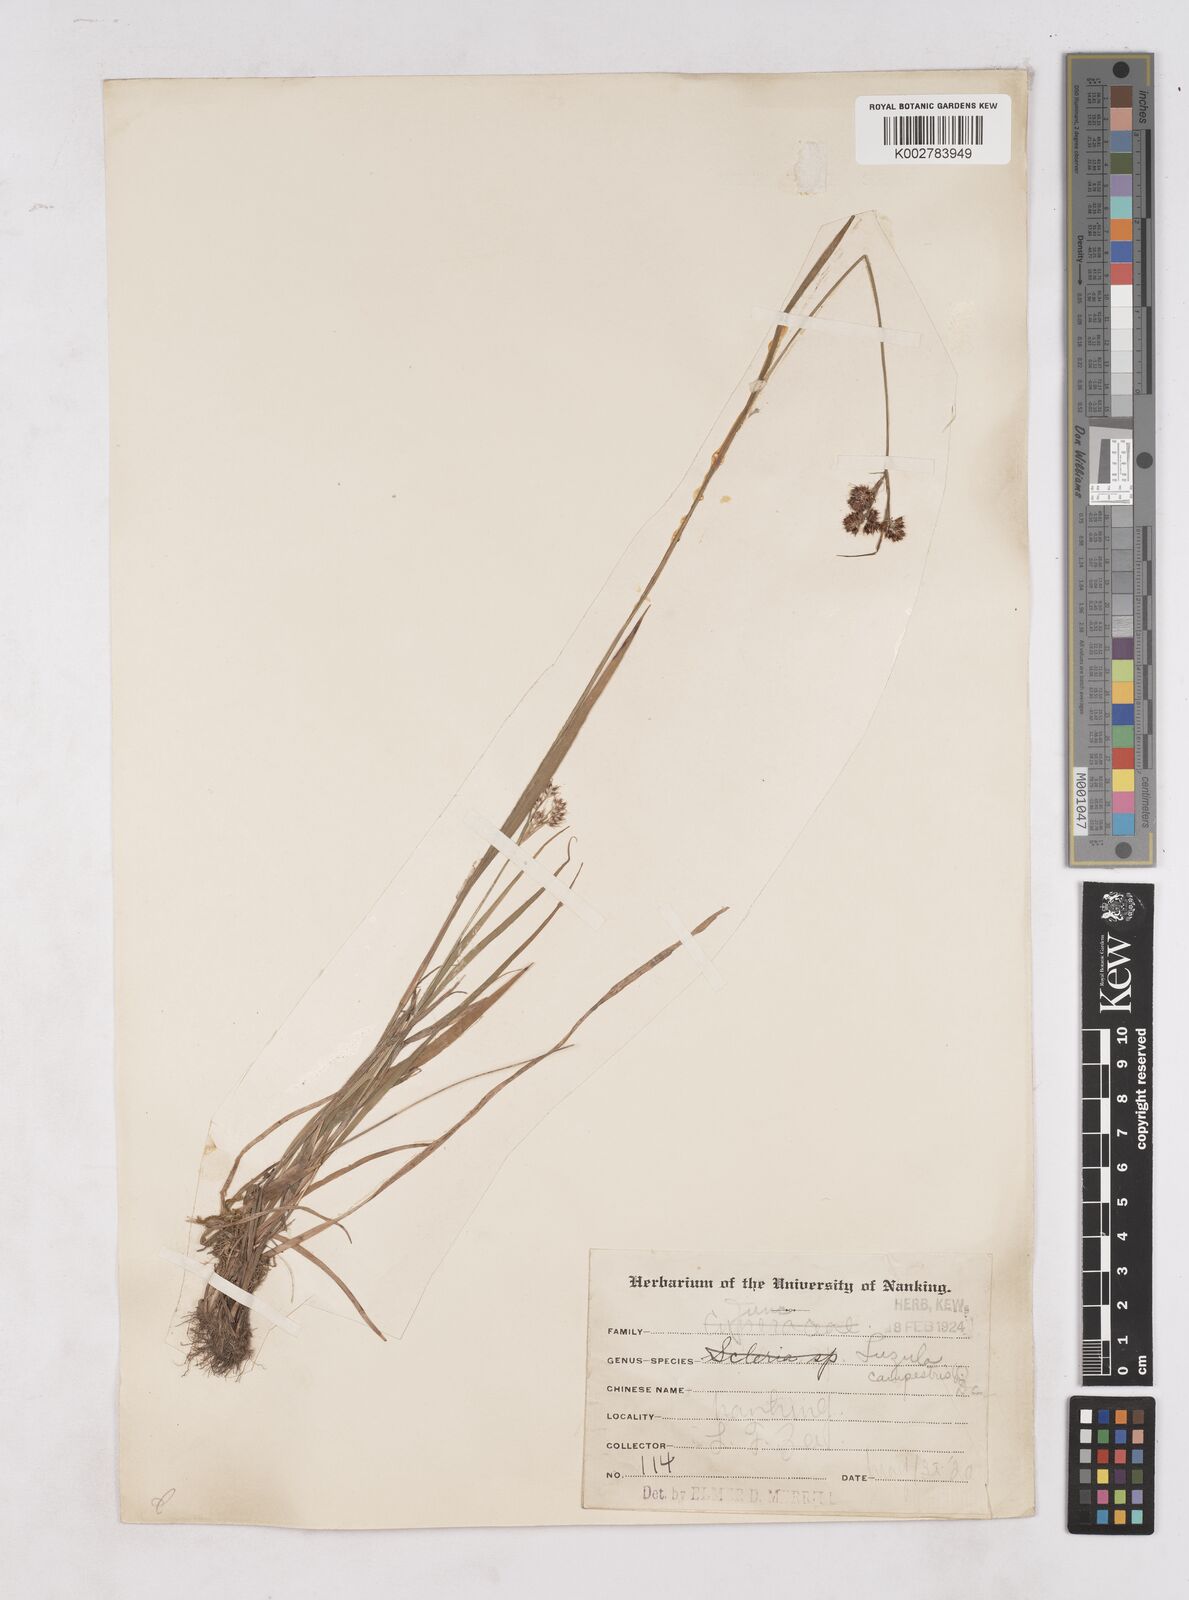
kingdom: Plantae
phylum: Tracheophyta
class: Liliopsida
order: Poales
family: Juncaceae
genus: Luzula
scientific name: Luzula campestris
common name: Field wood-rush
